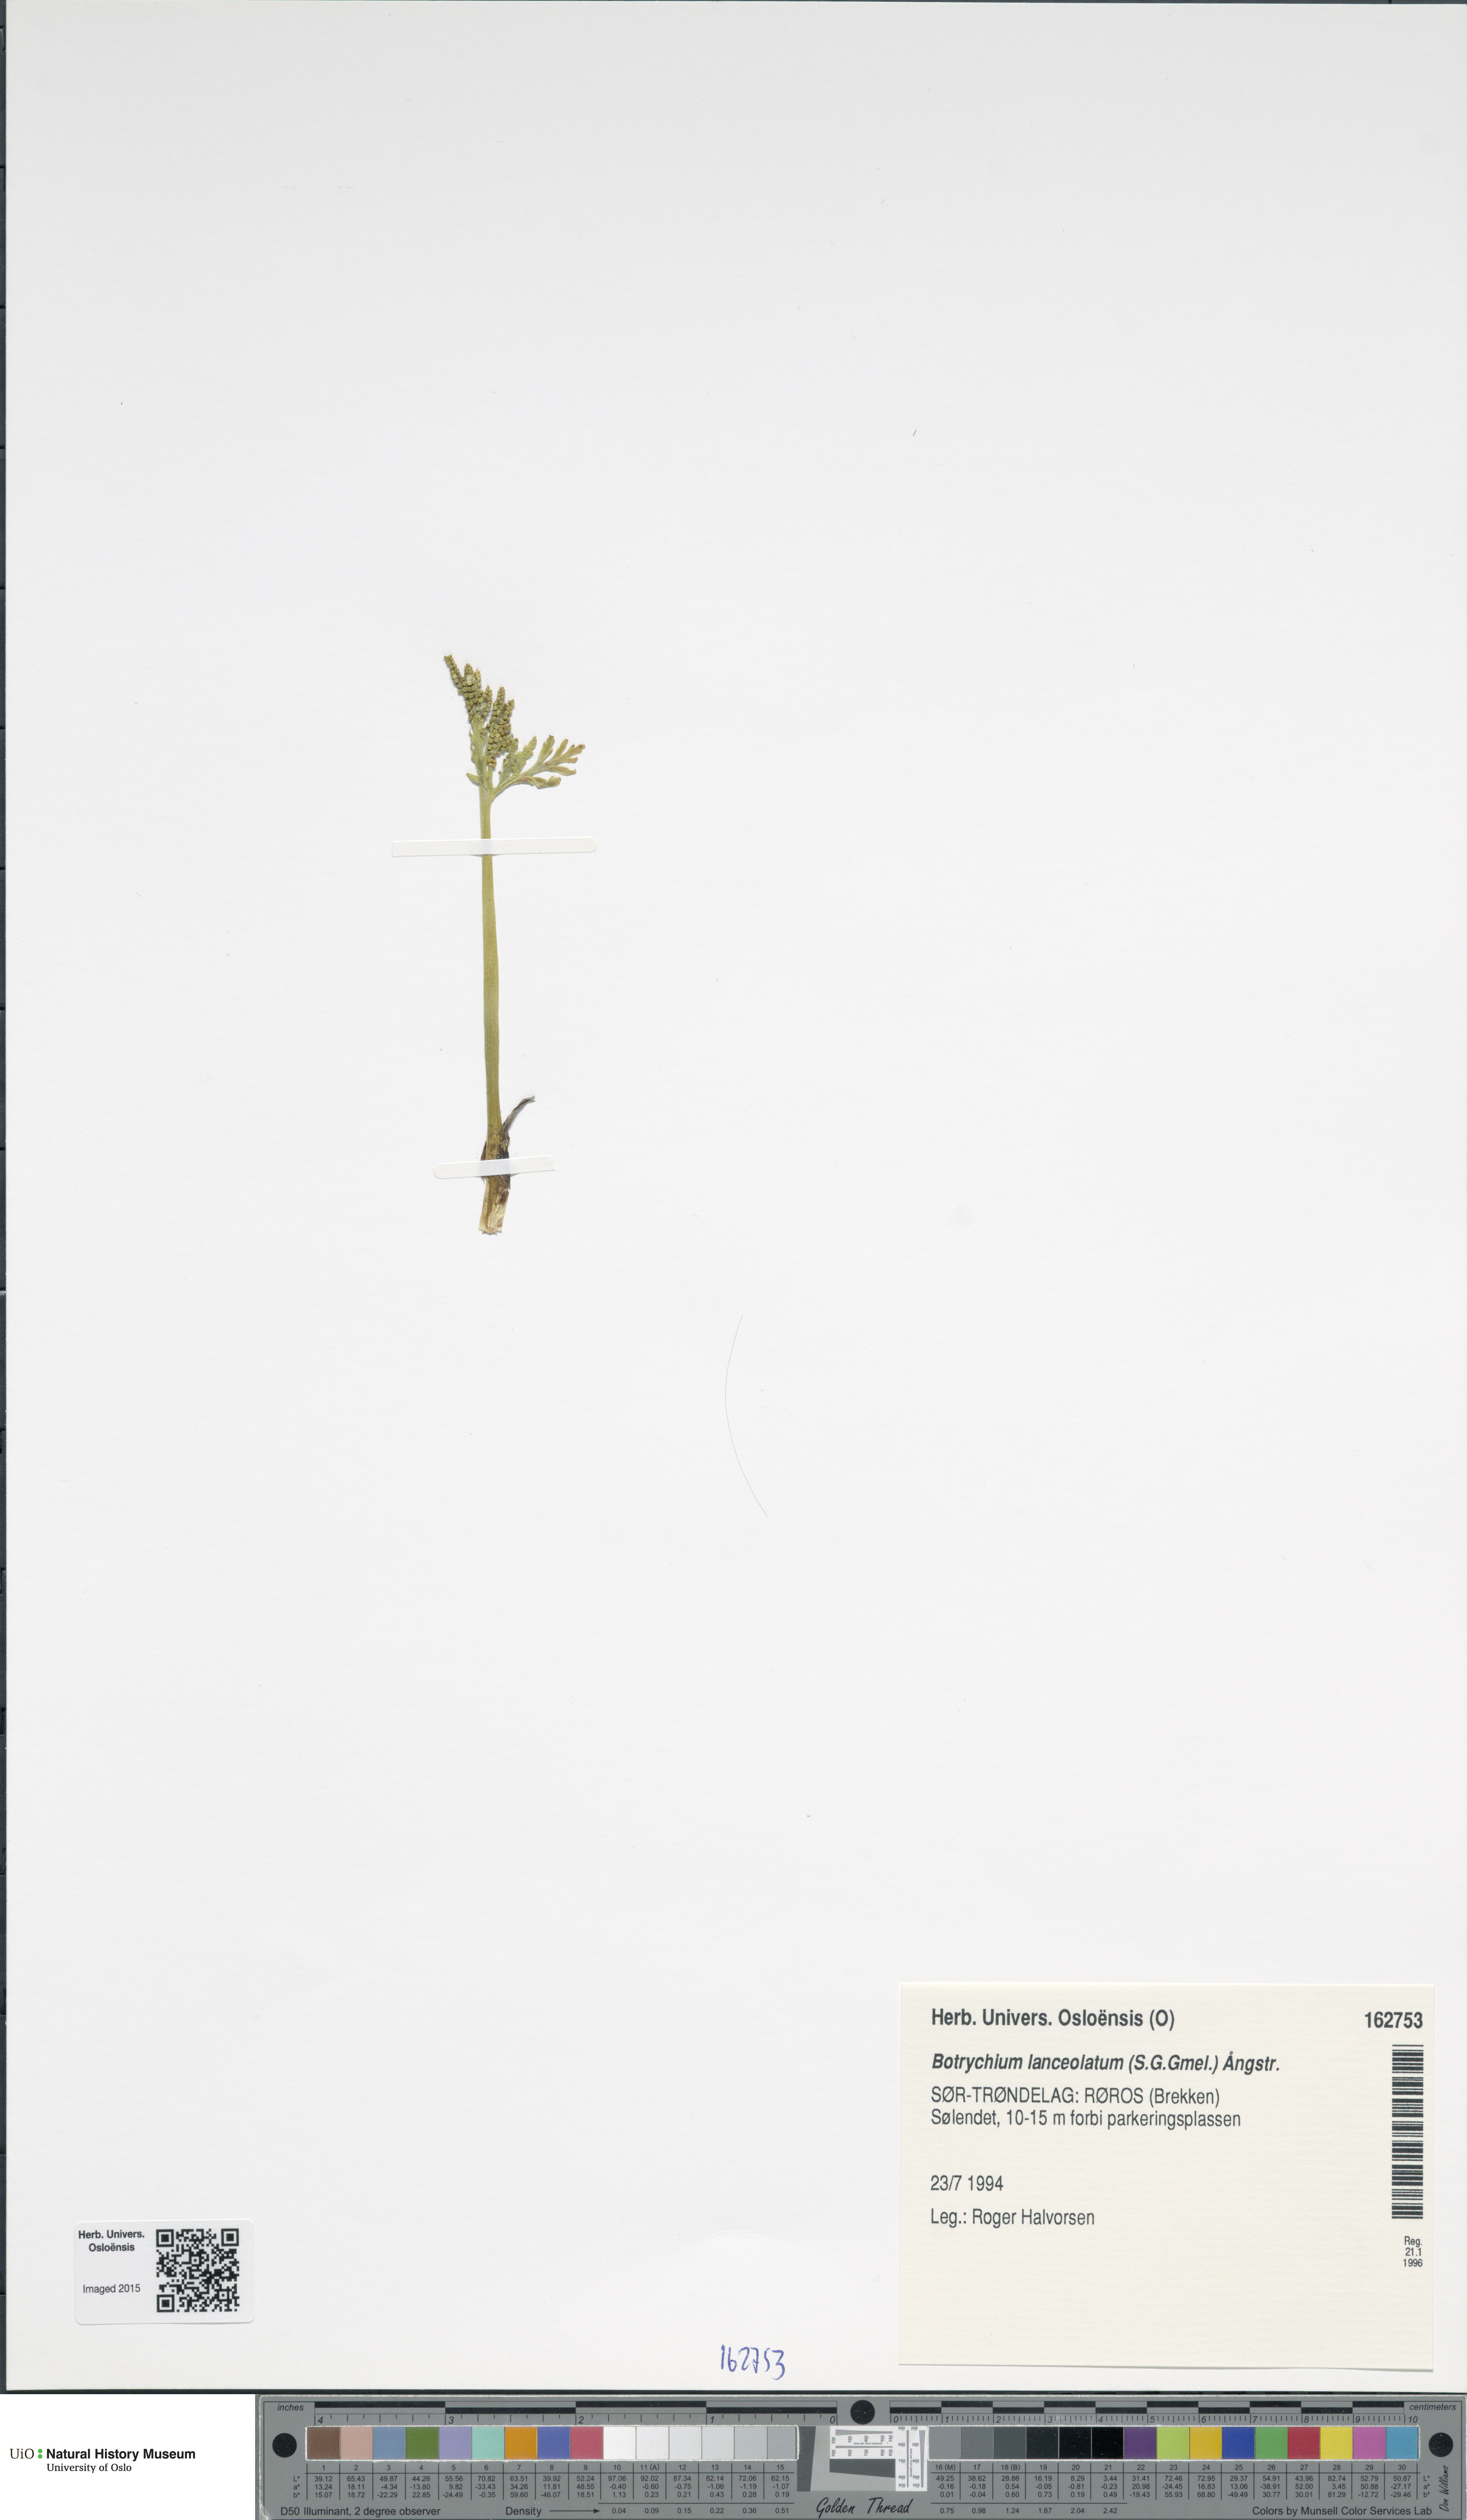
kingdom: Plantae
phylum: Tracheophyta
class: Polypodiopsida
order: Ophioglossales
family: Ophioglossaceae
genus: Botrychium
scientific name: Botrychium lanceolatum
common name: Lance-leaved moonwort
